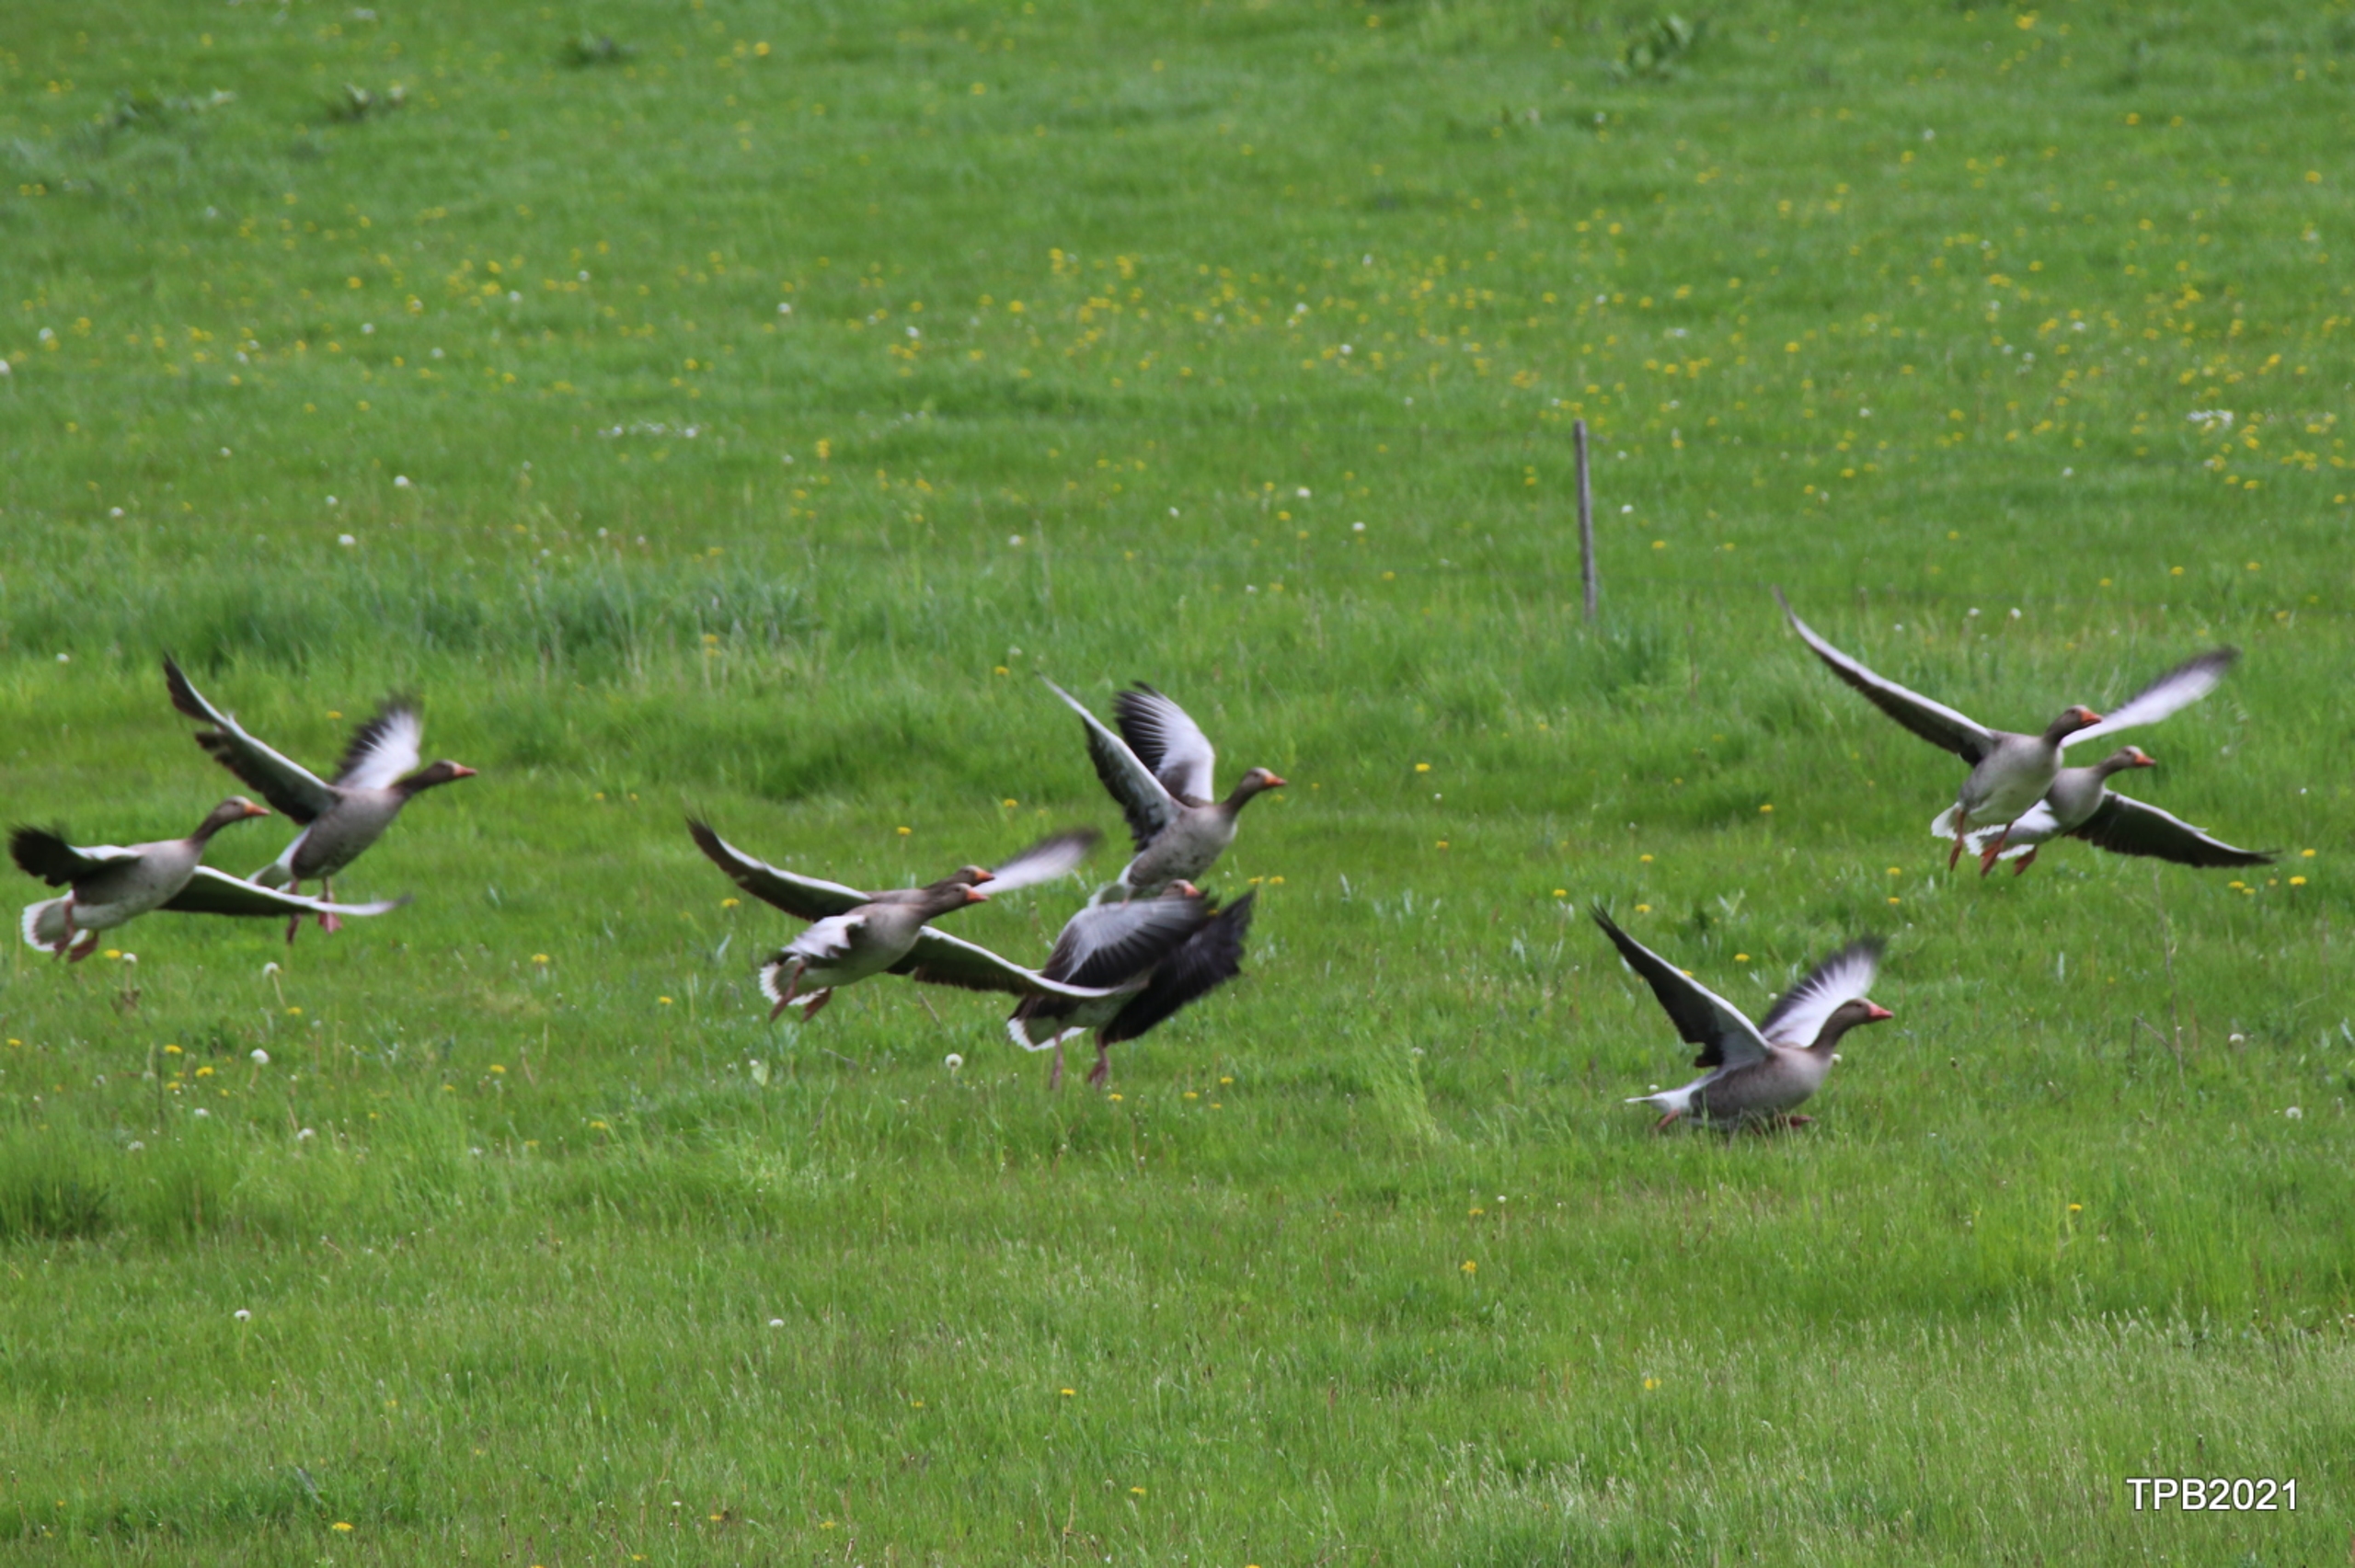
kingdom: Animalia
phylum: Chordata
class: Aves
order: Anseriformes
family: Anatidae
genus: Anser
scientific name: Anser anser
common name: Grågås
